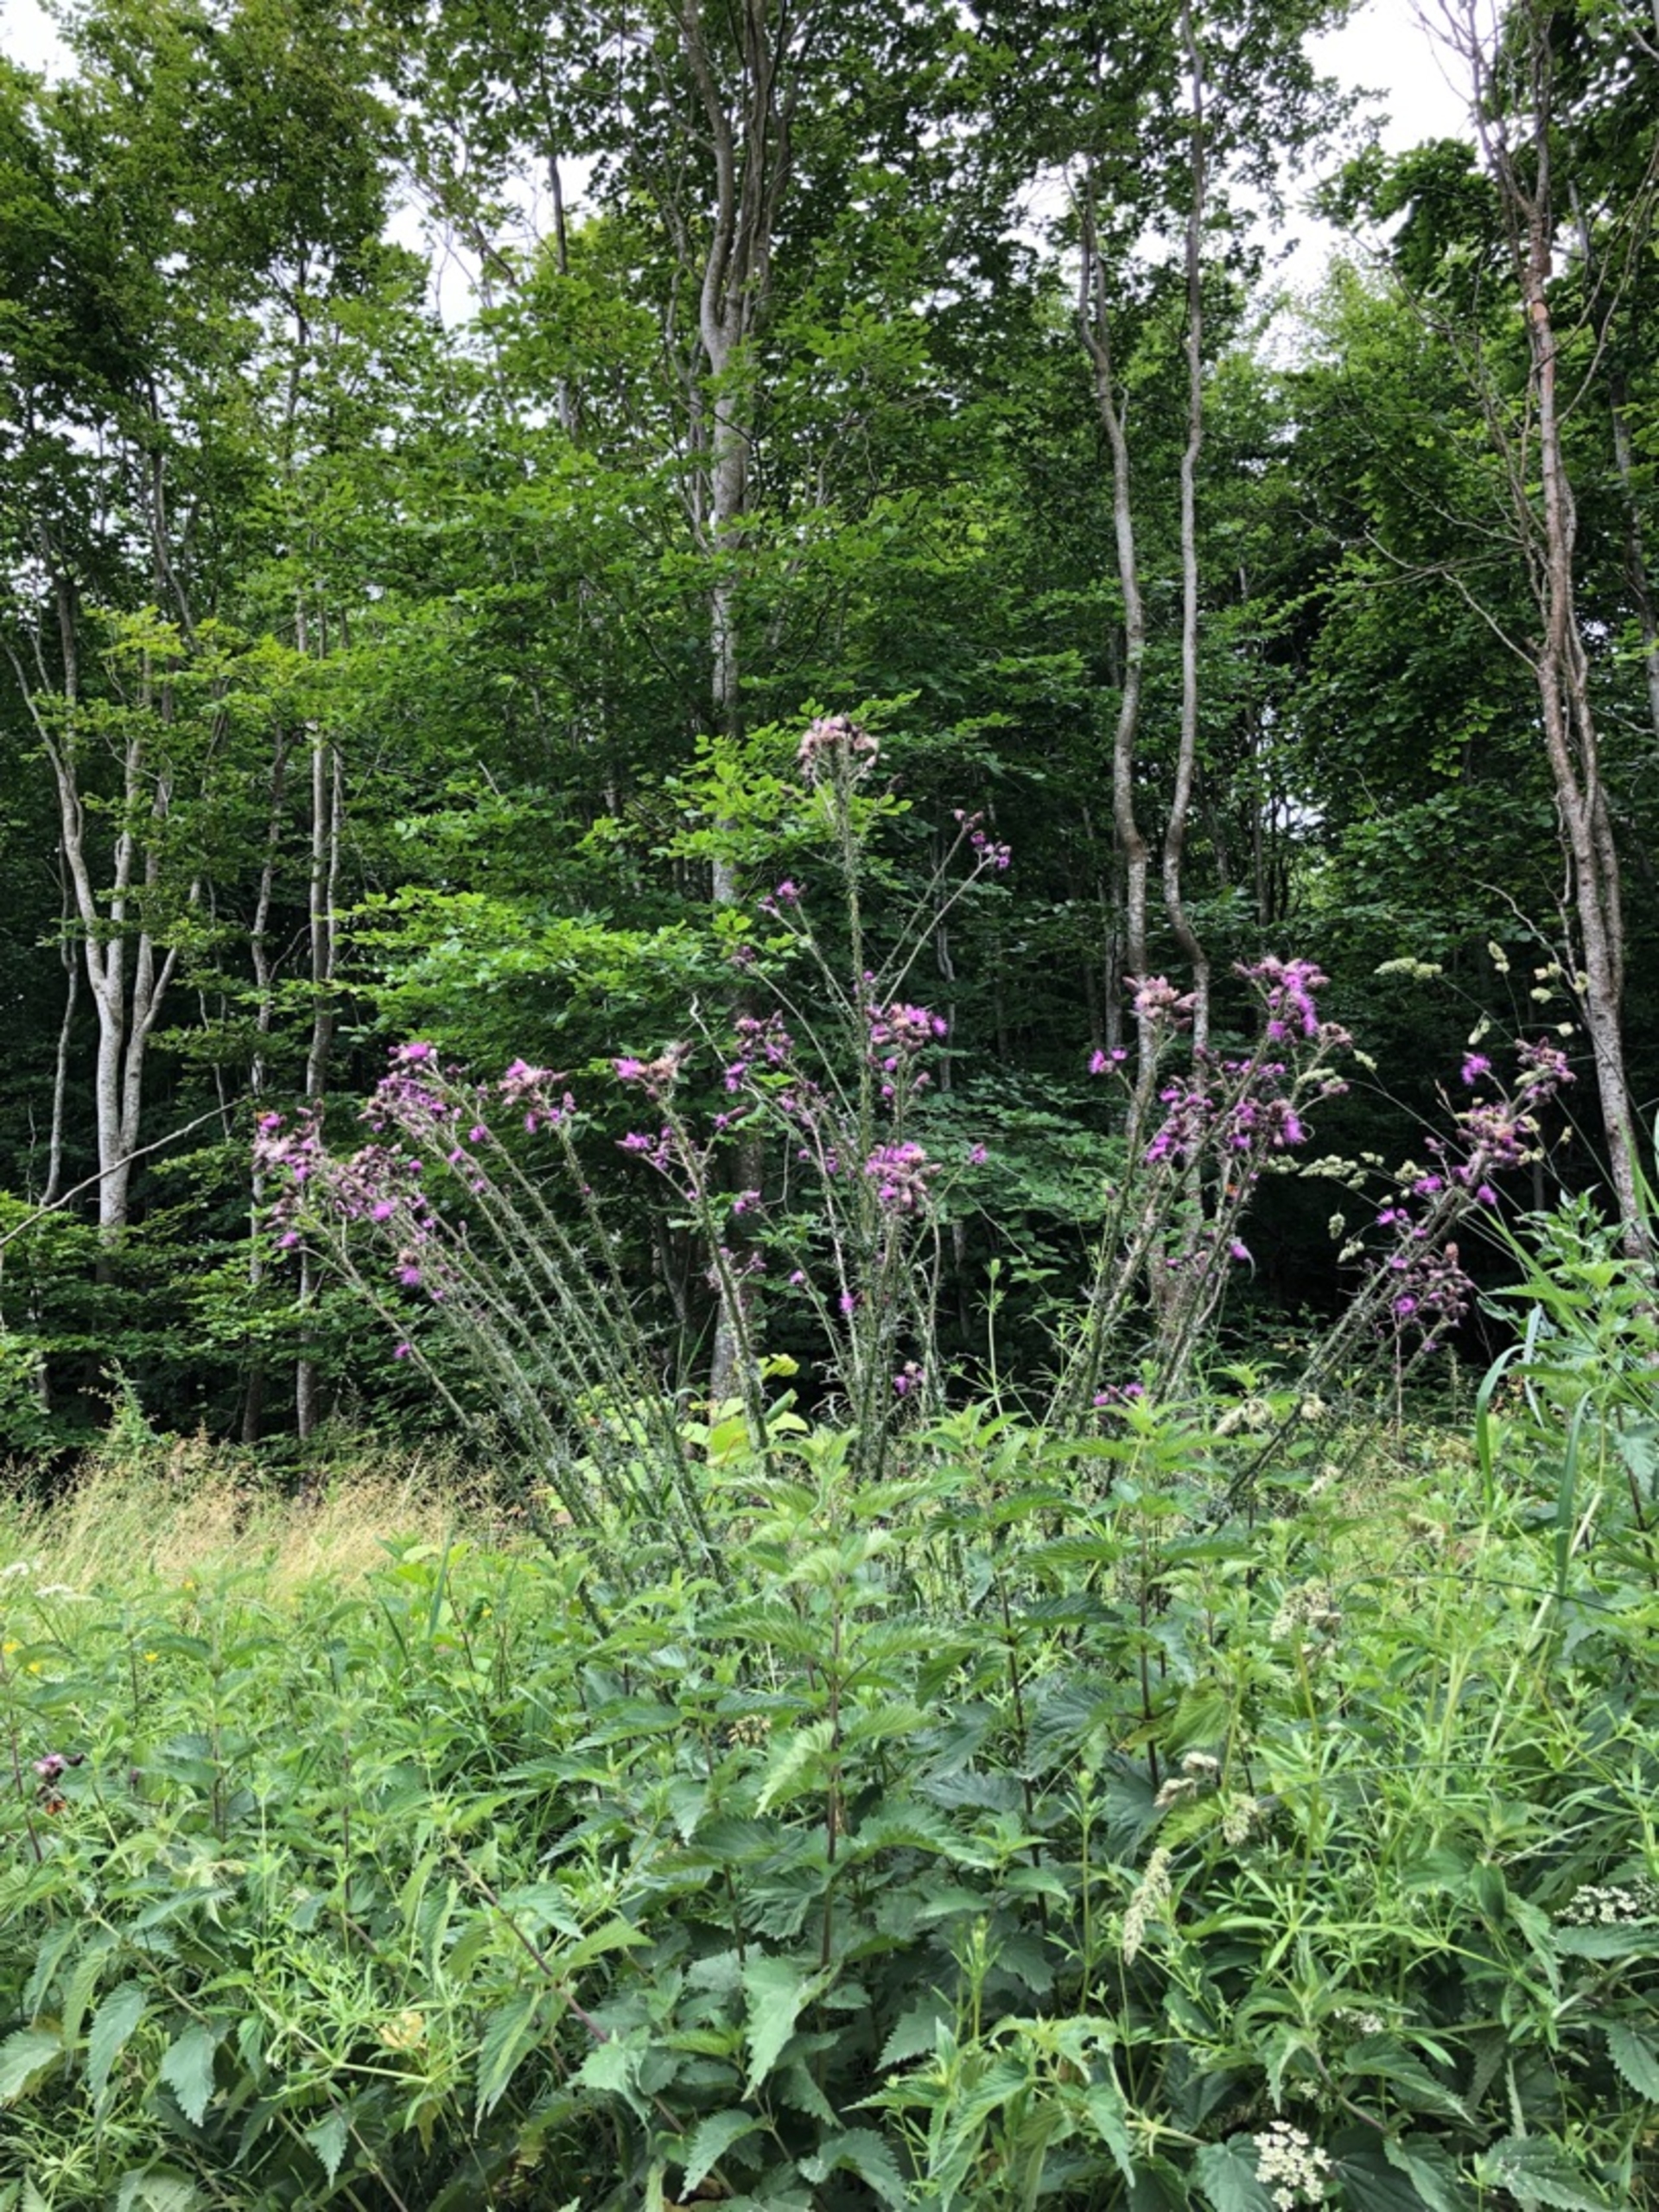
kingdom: Plantae
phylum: Tracheophyta
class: Magnoliopsida
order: Asterales
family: Asteraceae
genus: Cirsium
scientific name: Cirsium palustre
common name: Kær-tidsel
